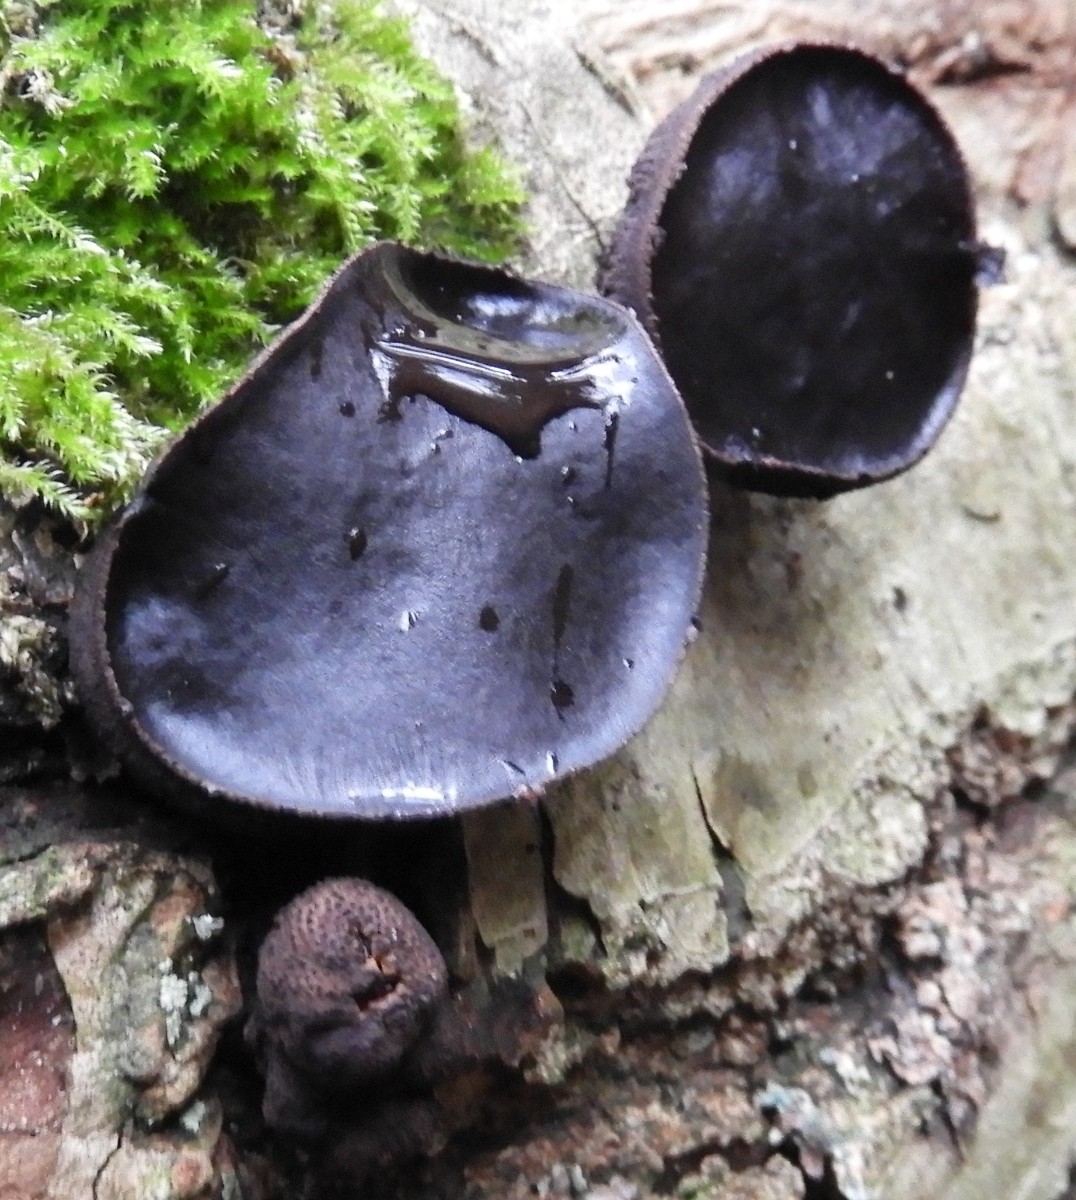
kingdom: Fungi
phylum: Ascomycota
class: Leotiomycetes
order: Phacidiales
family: Phacidiaceae
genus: Bulgaria
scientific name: Bulgaria inquinans
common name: afsmittende topsvamp
